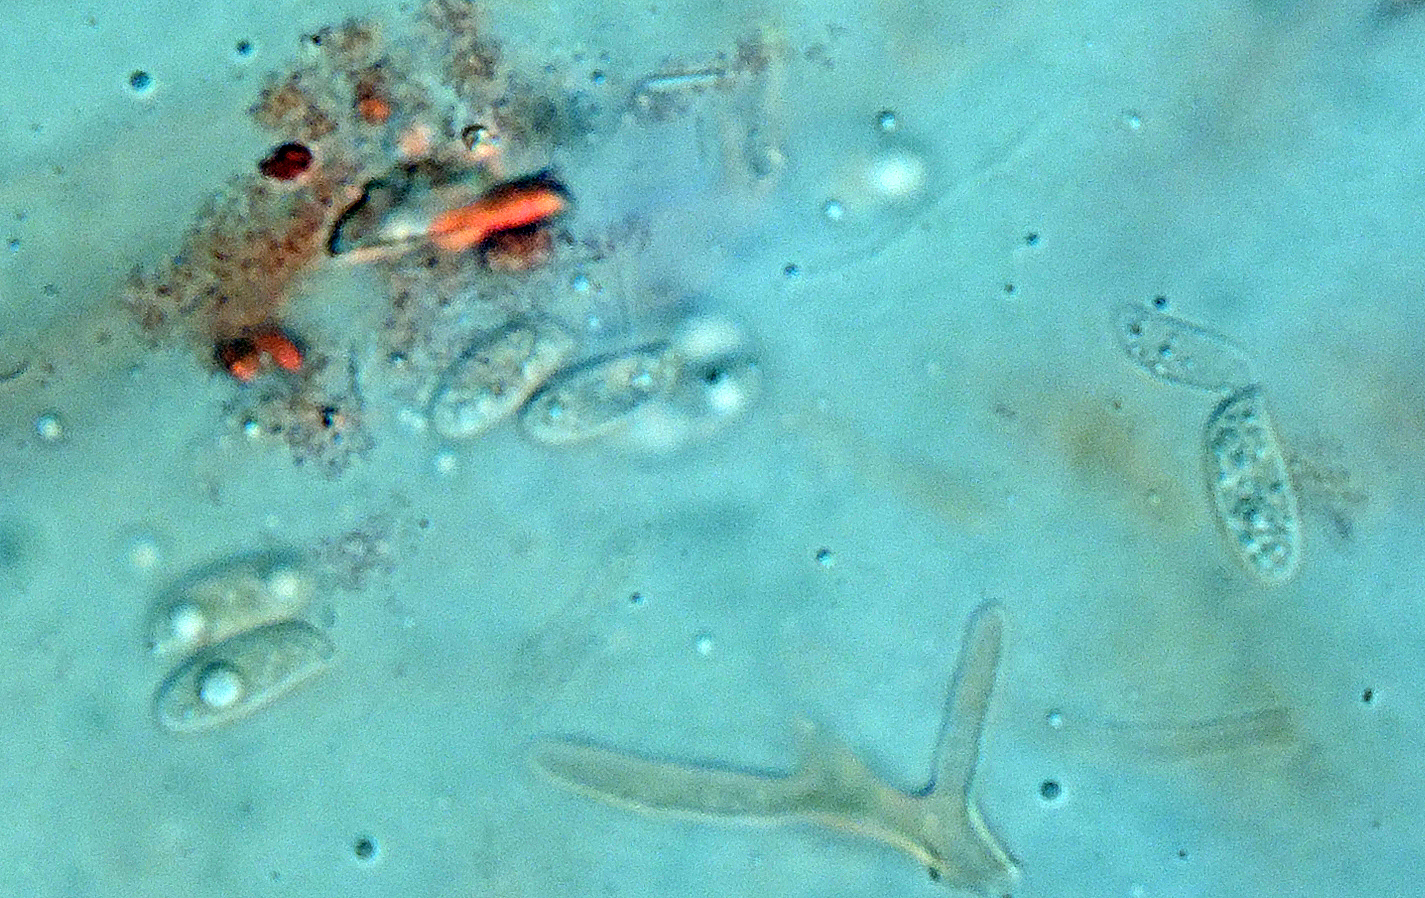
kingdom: Fungi
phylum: Basidiomycota
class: Agaricomycetes
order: Agaricales
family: Physalacriaceae
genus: Flammulina
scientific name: Flammulina velutipes
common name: gul fløjlsfod
